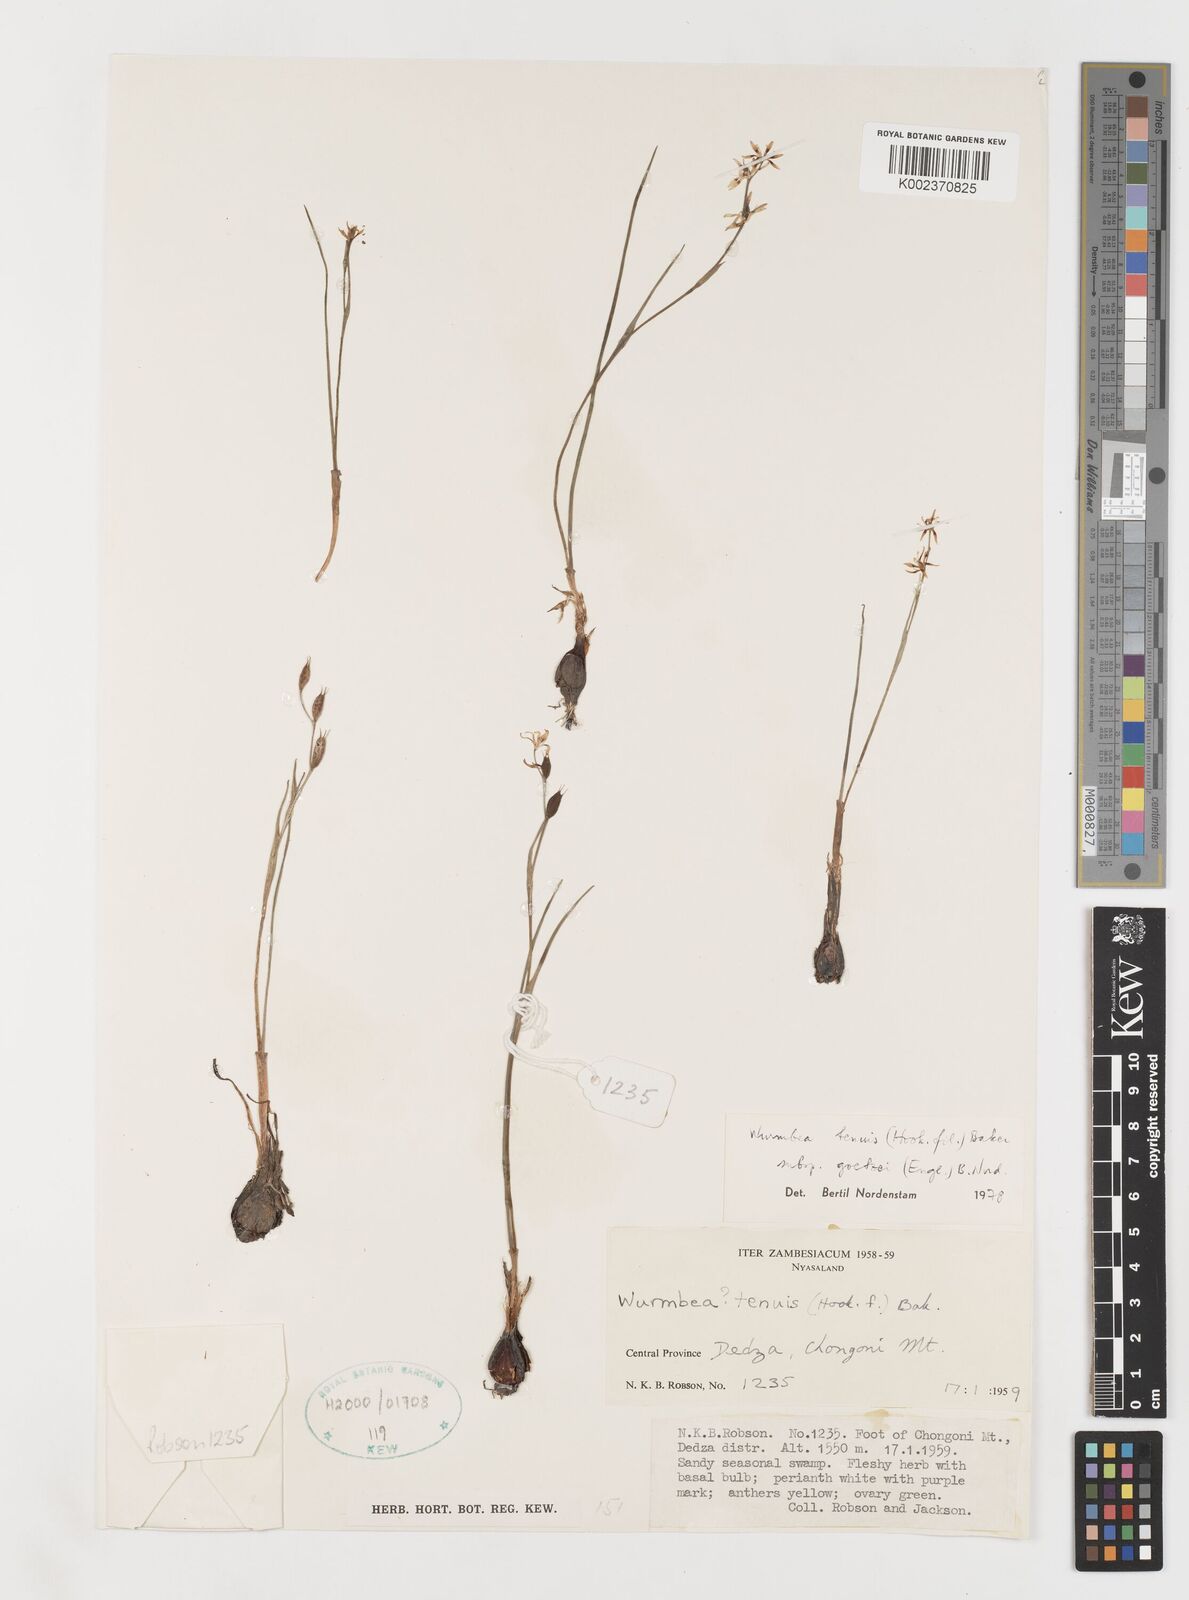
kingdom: Plantae
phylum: Tracheophyta
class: Liliopsida
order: Liliales
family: Colchicaceae
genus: Wurmbea
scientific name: Wurmbea tenuis
